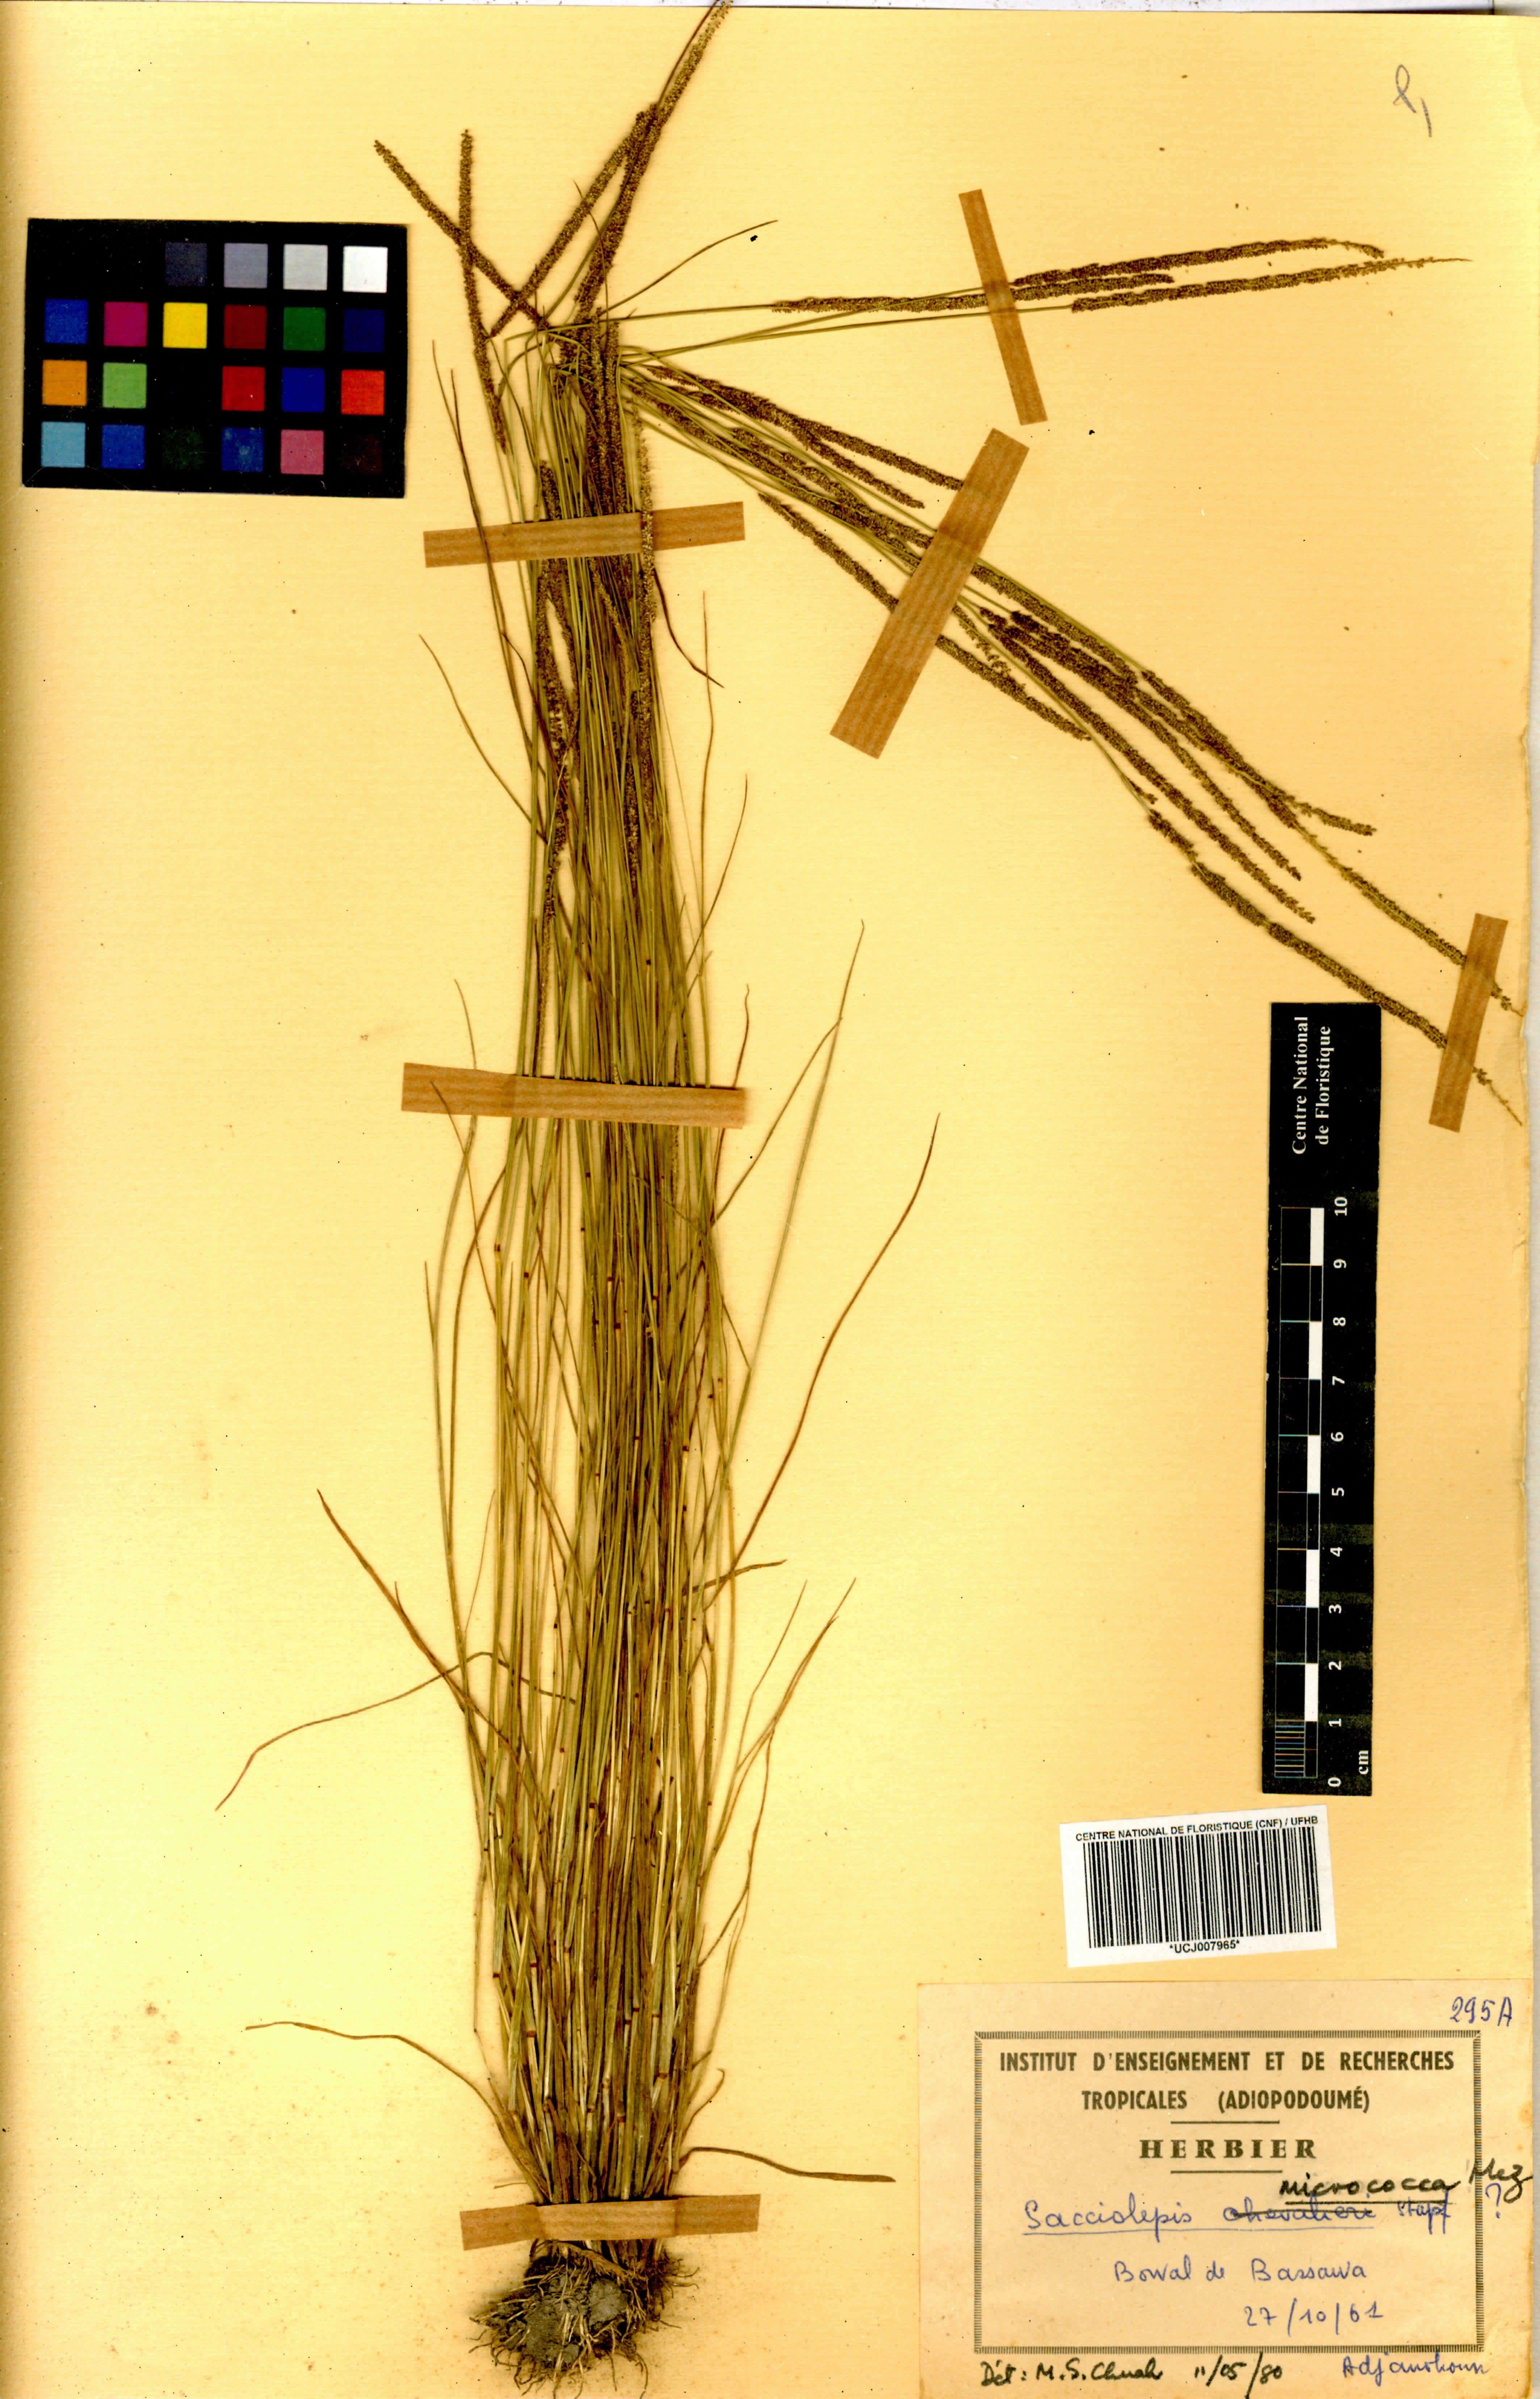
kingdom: Plantae
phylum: Tracheophyta
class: Liliopsida
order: Poales
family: Poaceae
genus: Sacciolepis
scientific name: Sacciolepis micrococca
